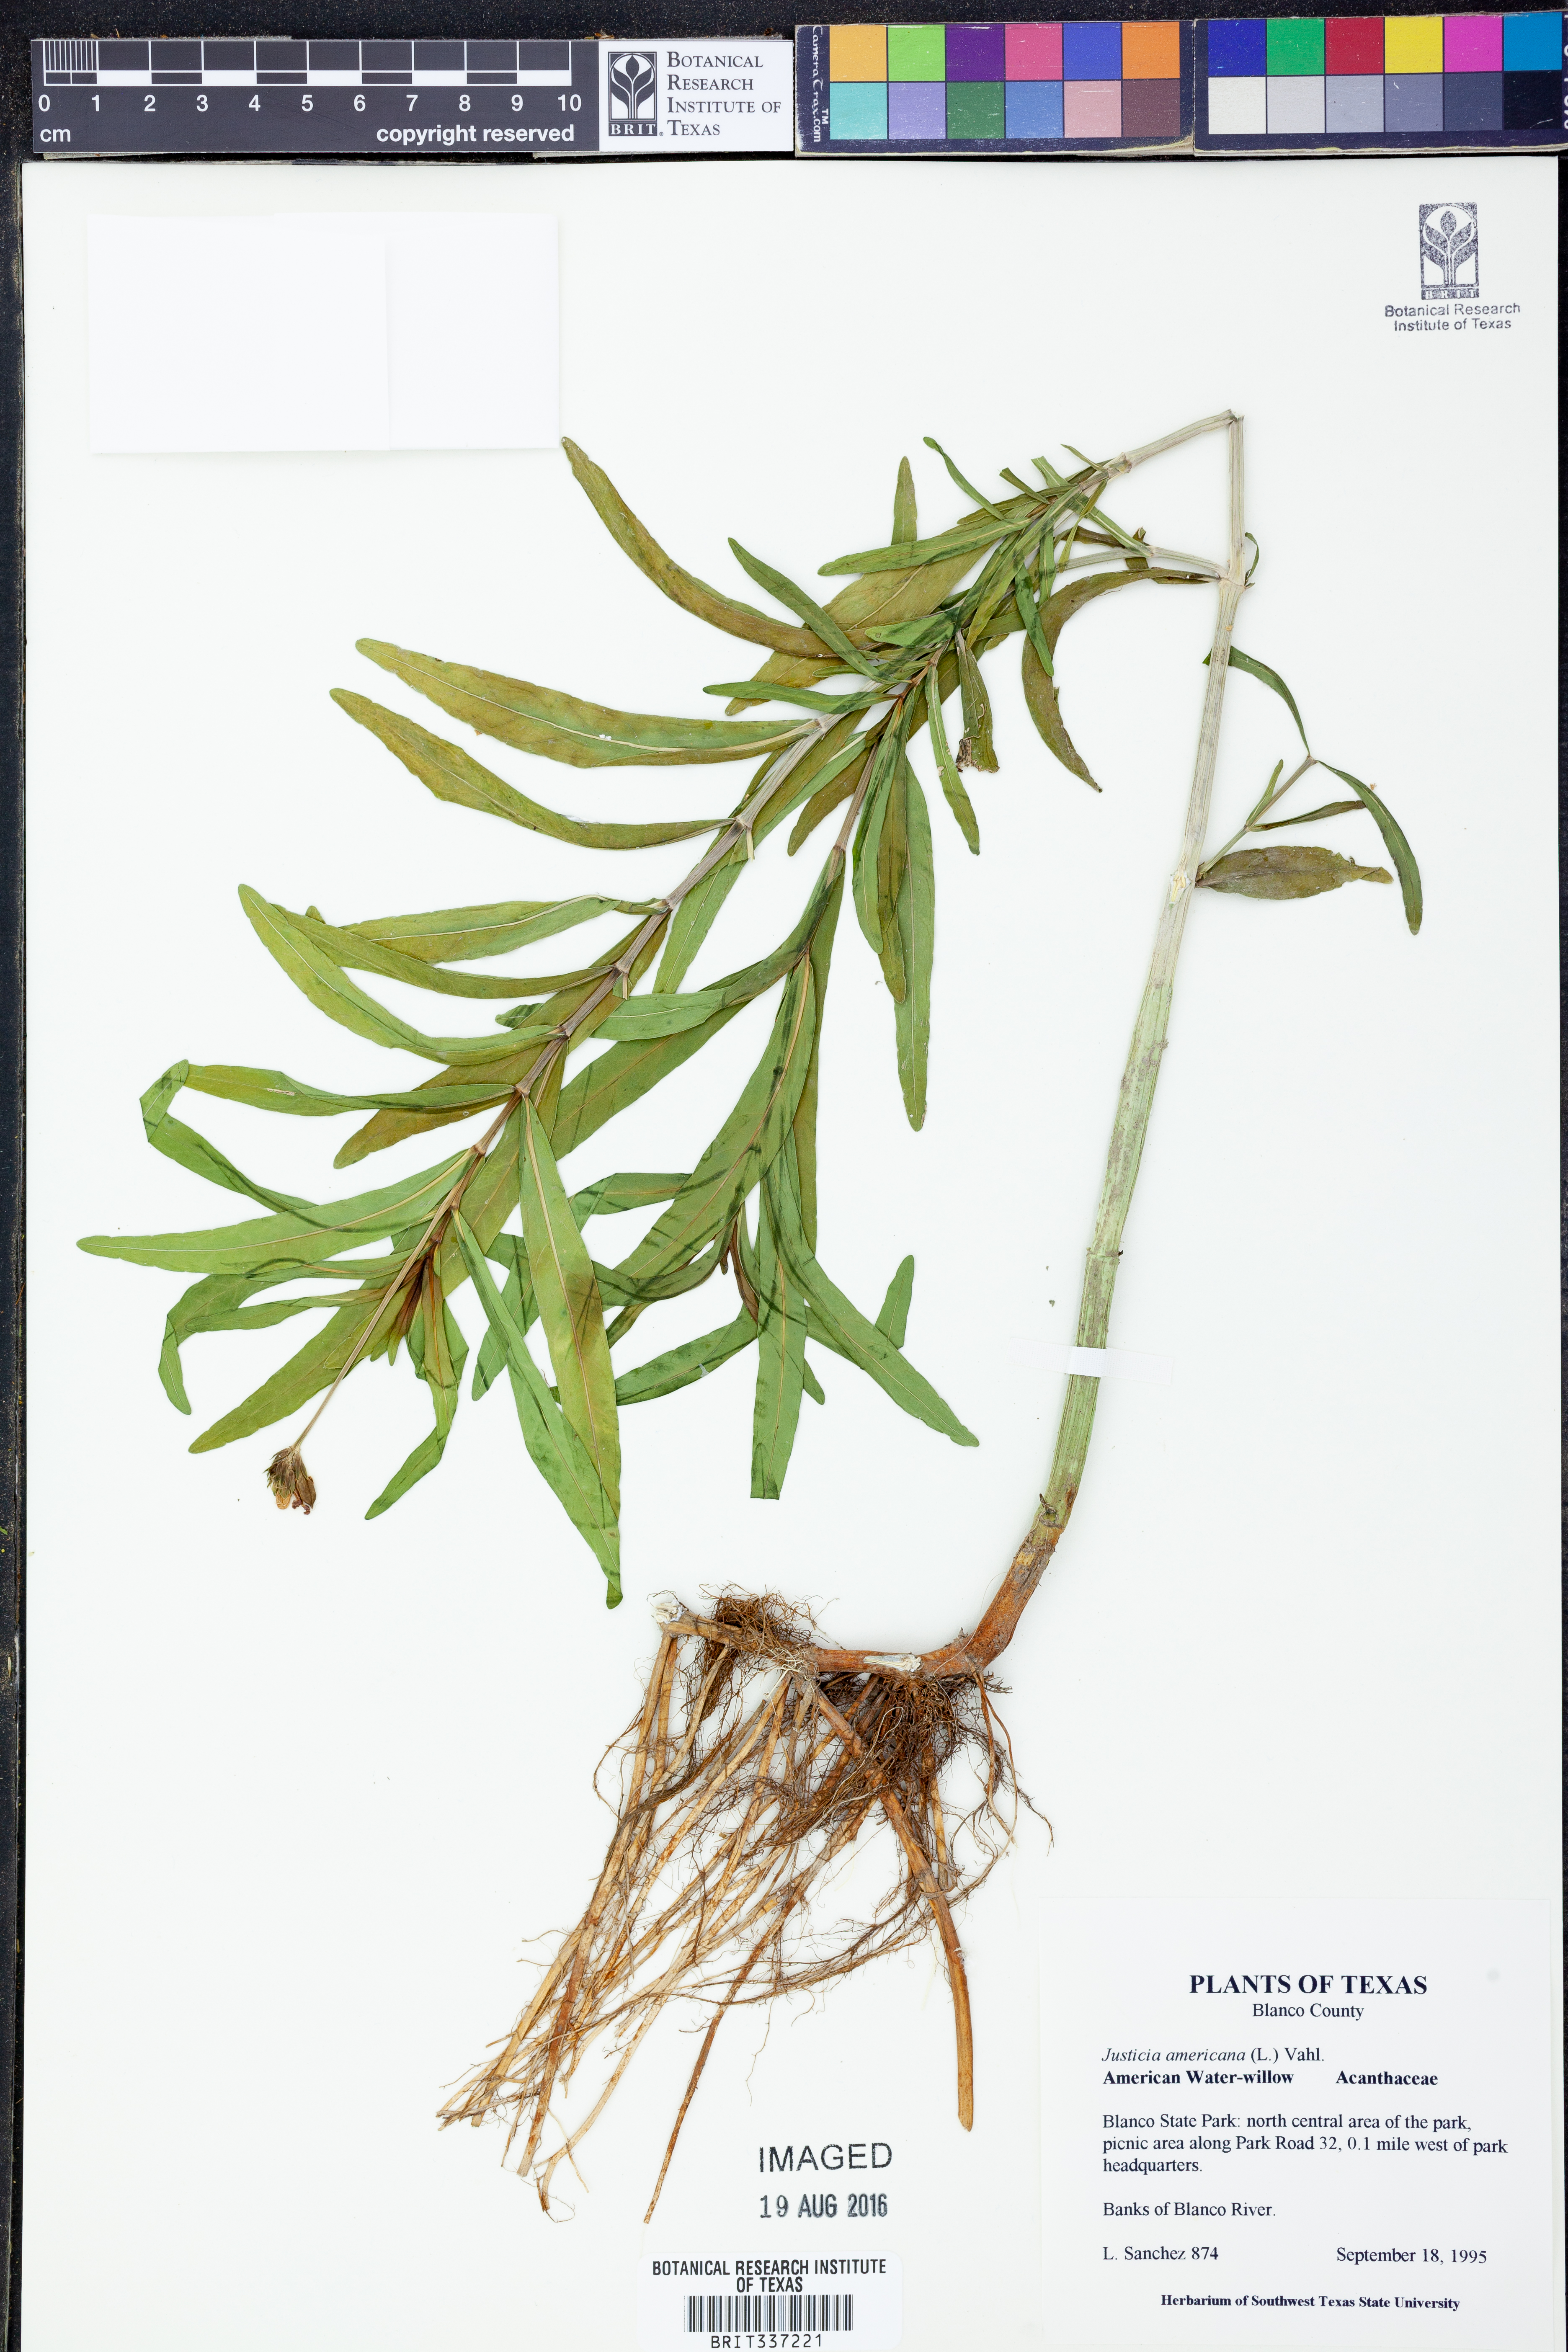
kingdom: Plantae
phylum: Tracheophyta
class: Magnoliopsida
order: Lamiales
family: Acanthaceae
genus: Dianthera
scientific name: Dianthera americana
